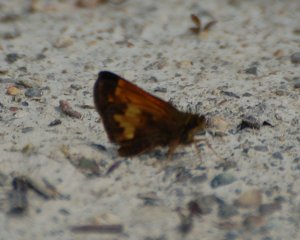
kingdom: Animalia
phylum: Arthropoda
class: Insecta
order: Lepidoptera
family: Hesperiidae
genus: Lon
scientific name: Lon hobomok
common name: Hobomok Skipper
